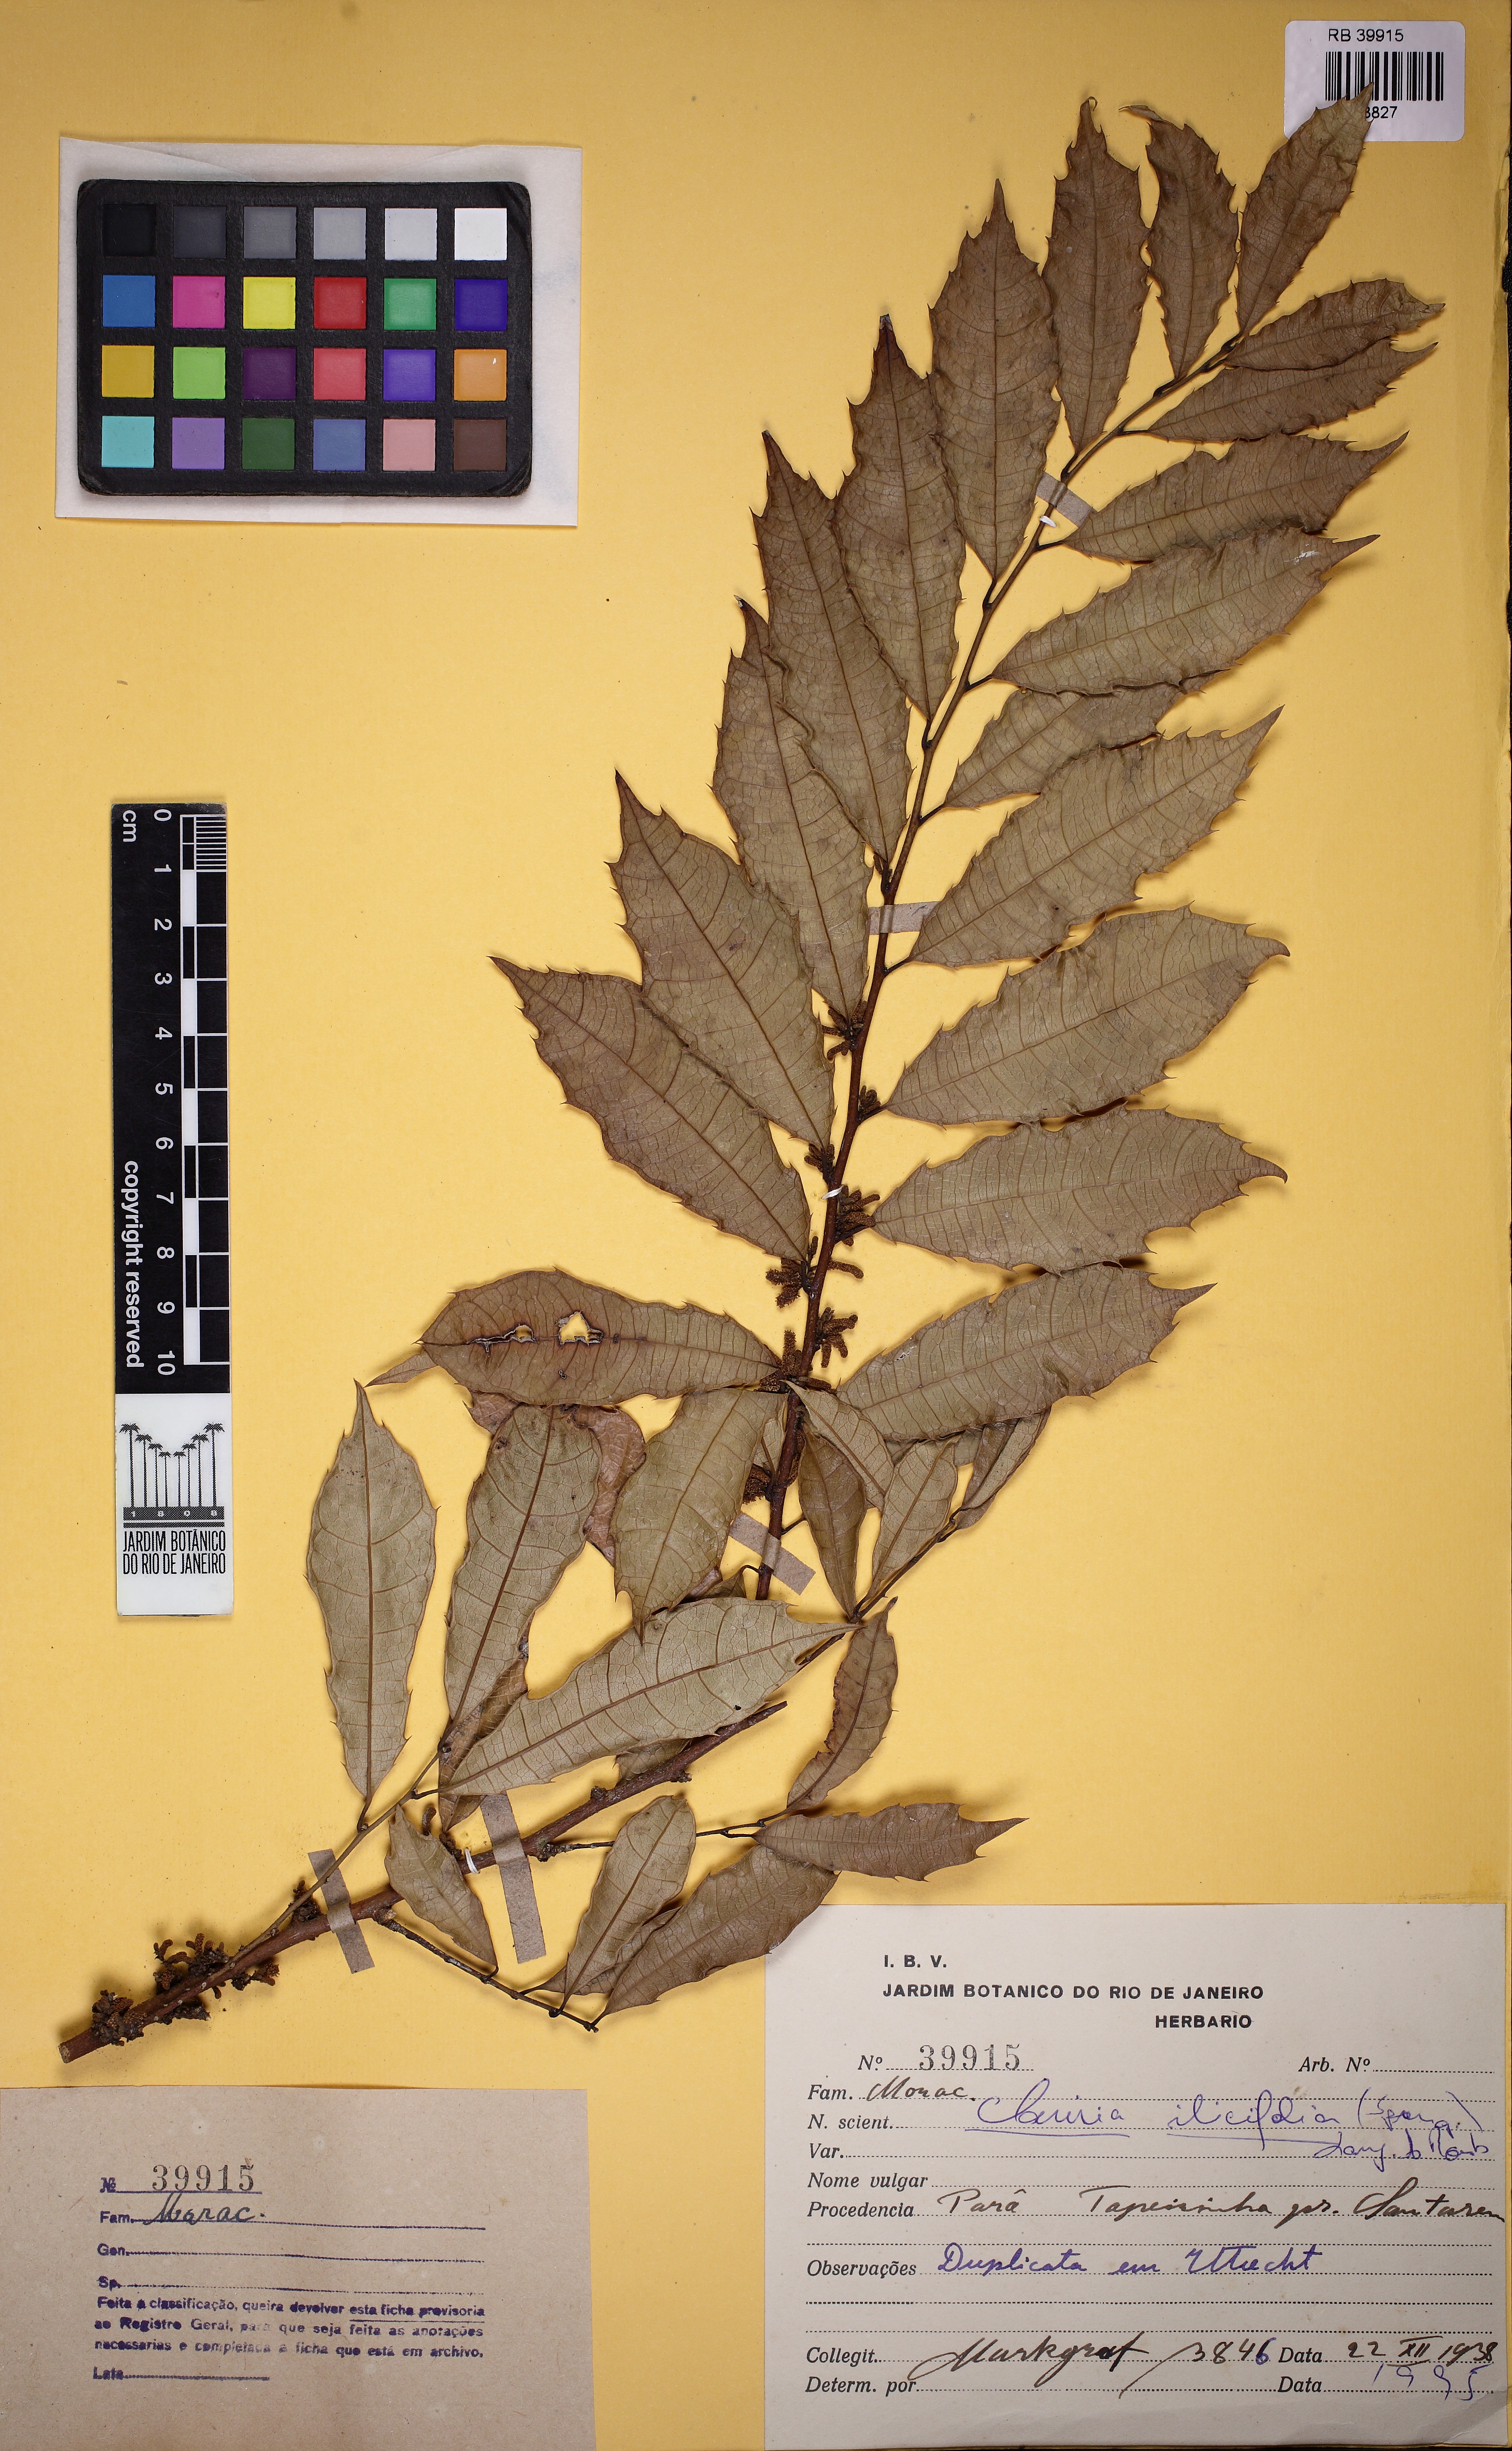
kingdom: Plantae
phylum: Tracheophyta
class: Magnoliopsida
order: Rosales
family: Moraceae
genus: Clarisia
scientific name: Clarisia ilicifolia
